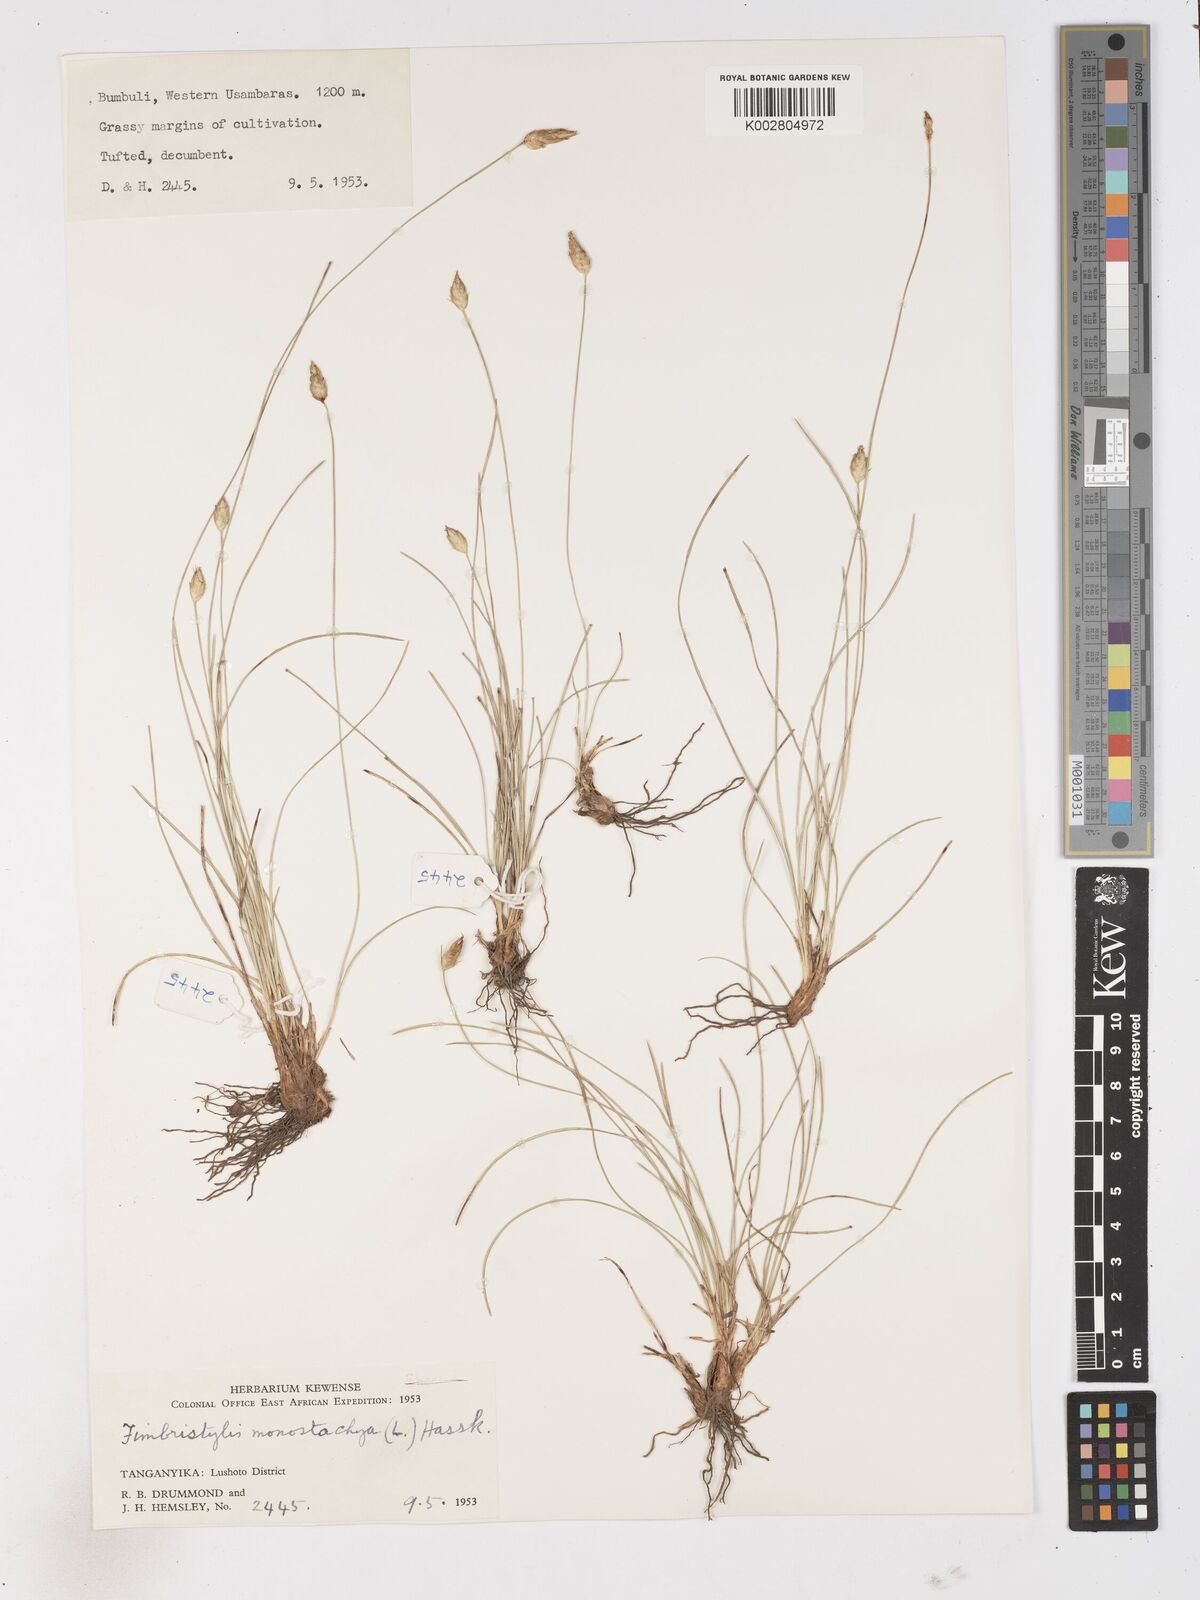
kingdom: Plantae
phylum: Tracheophyta
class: Liliopsida
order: Poales
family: Cyperaceae
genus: Abildgaardia
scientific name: Abildgaardia ovata
